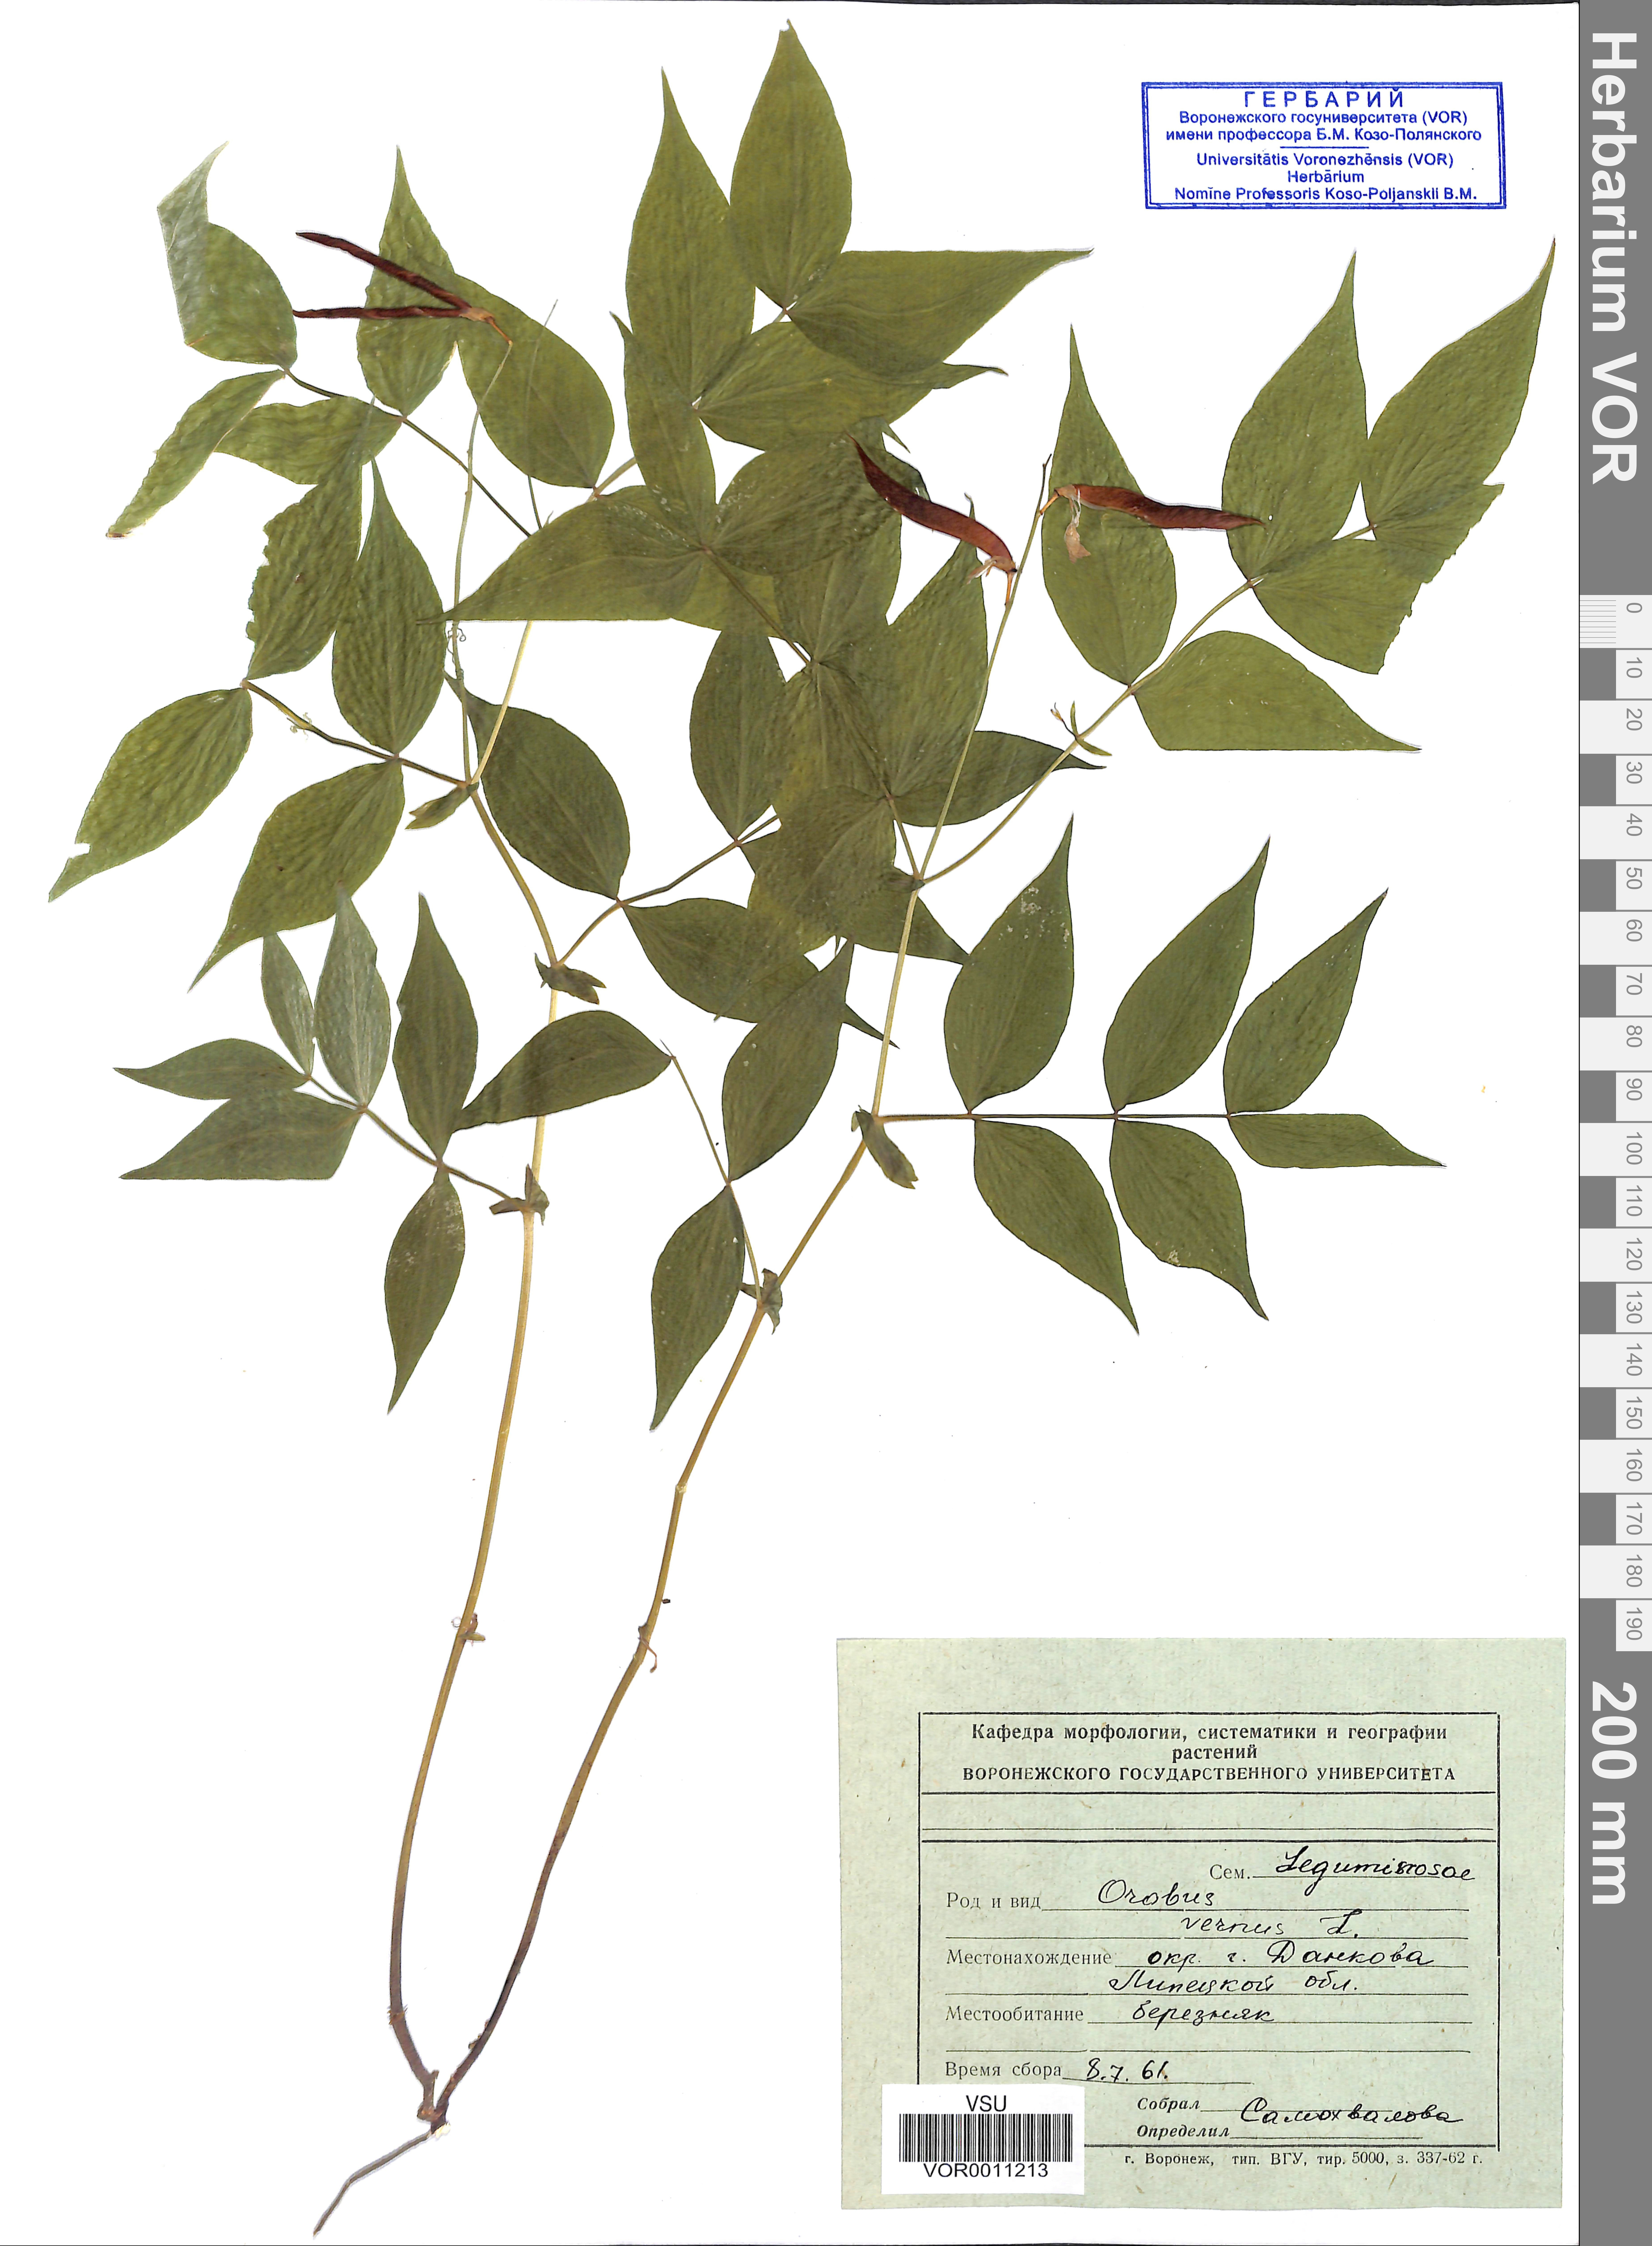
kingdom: Plantae
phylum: Tracheophyta
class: Magnoliopsida
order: Fabales
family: Fabaceae
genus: Lathyrus
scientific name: Lathyrus vernus
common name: Spring pea
